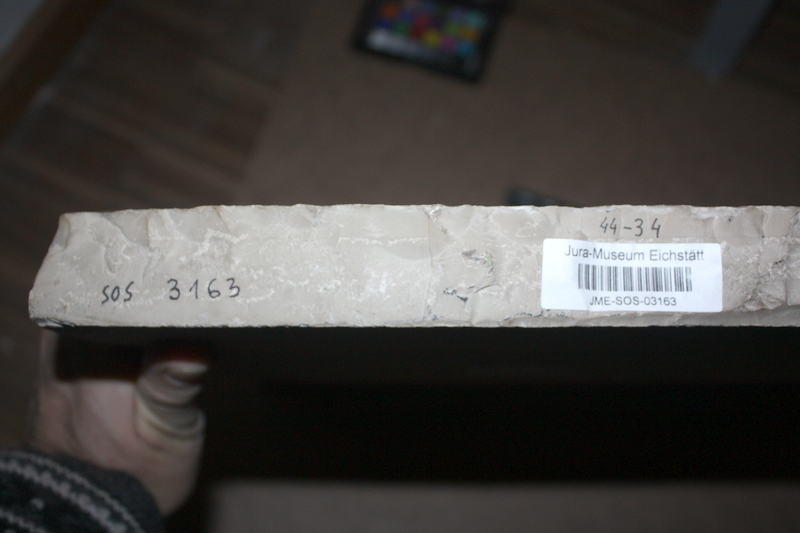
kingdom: Animalia
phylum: Chordata
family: Gyrodontidae
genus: Gyrodus
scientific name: Gyrodus hexagonus
